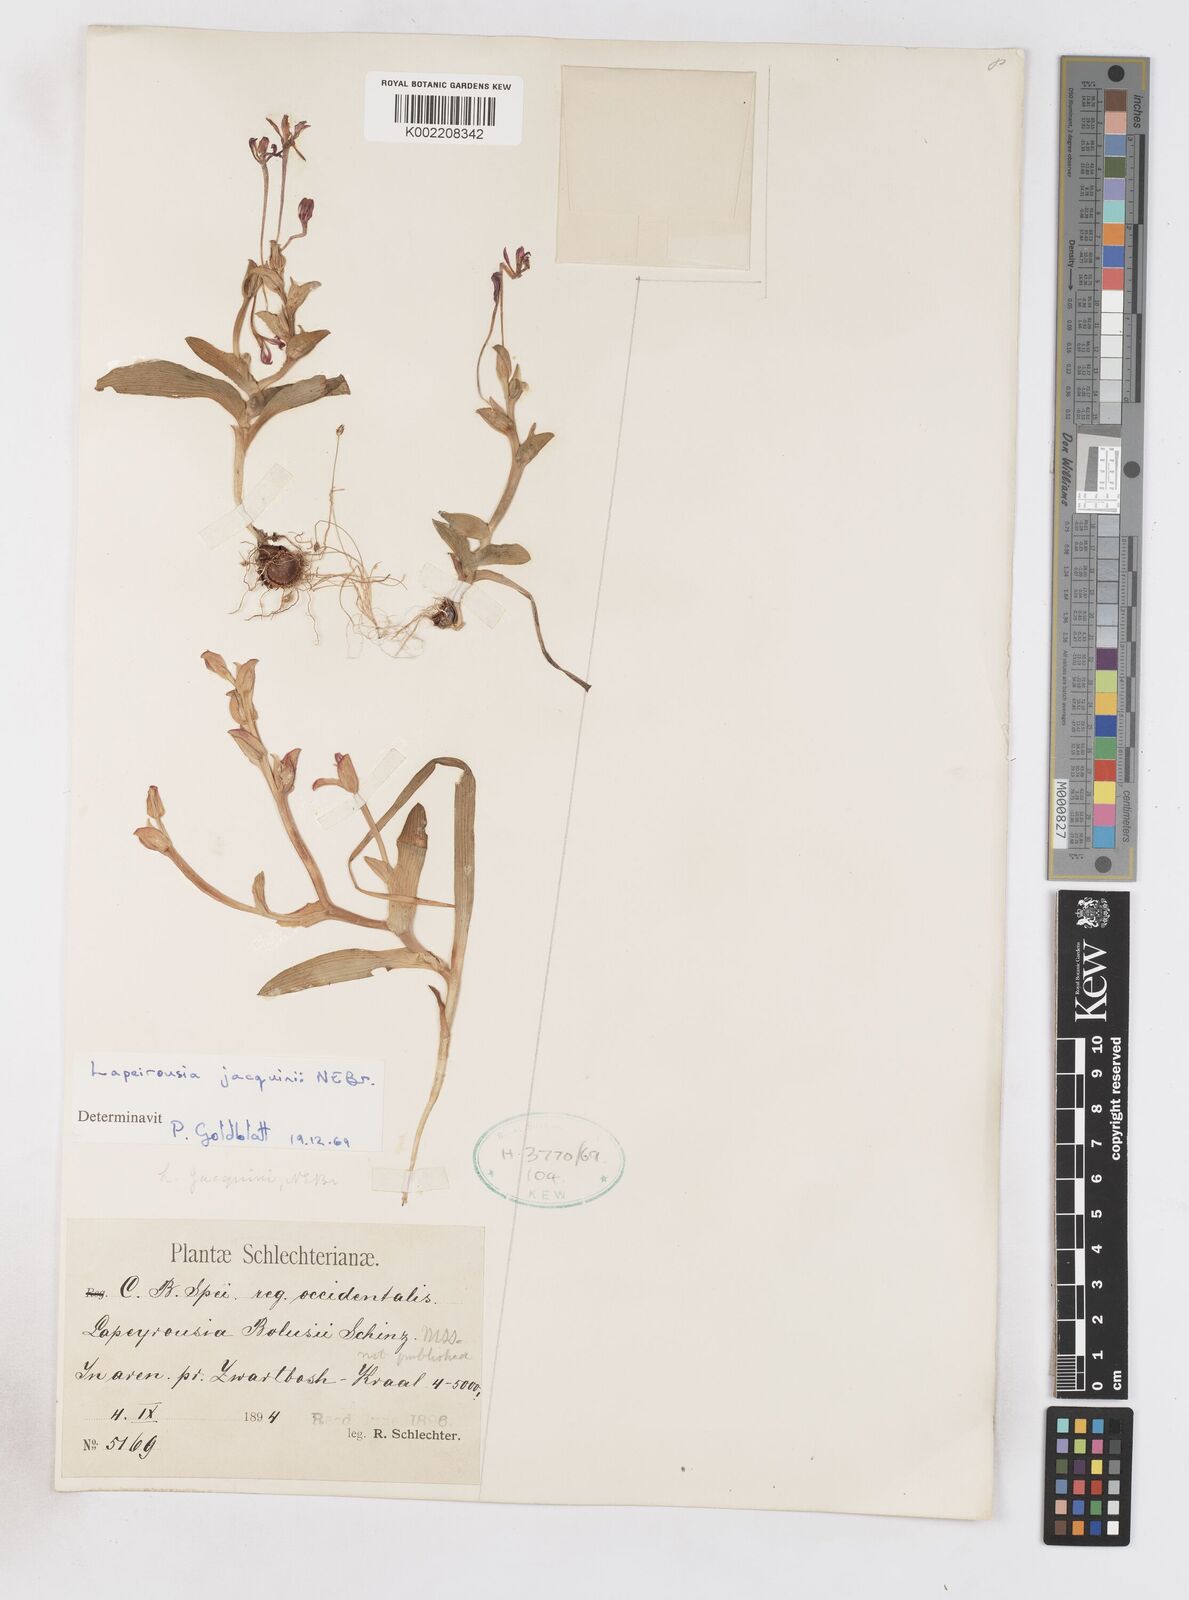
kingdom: Plantae
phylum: Tracheophyta
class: Liliopsida
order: Asparagales
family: Iridaceae
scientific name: Iridaceae
